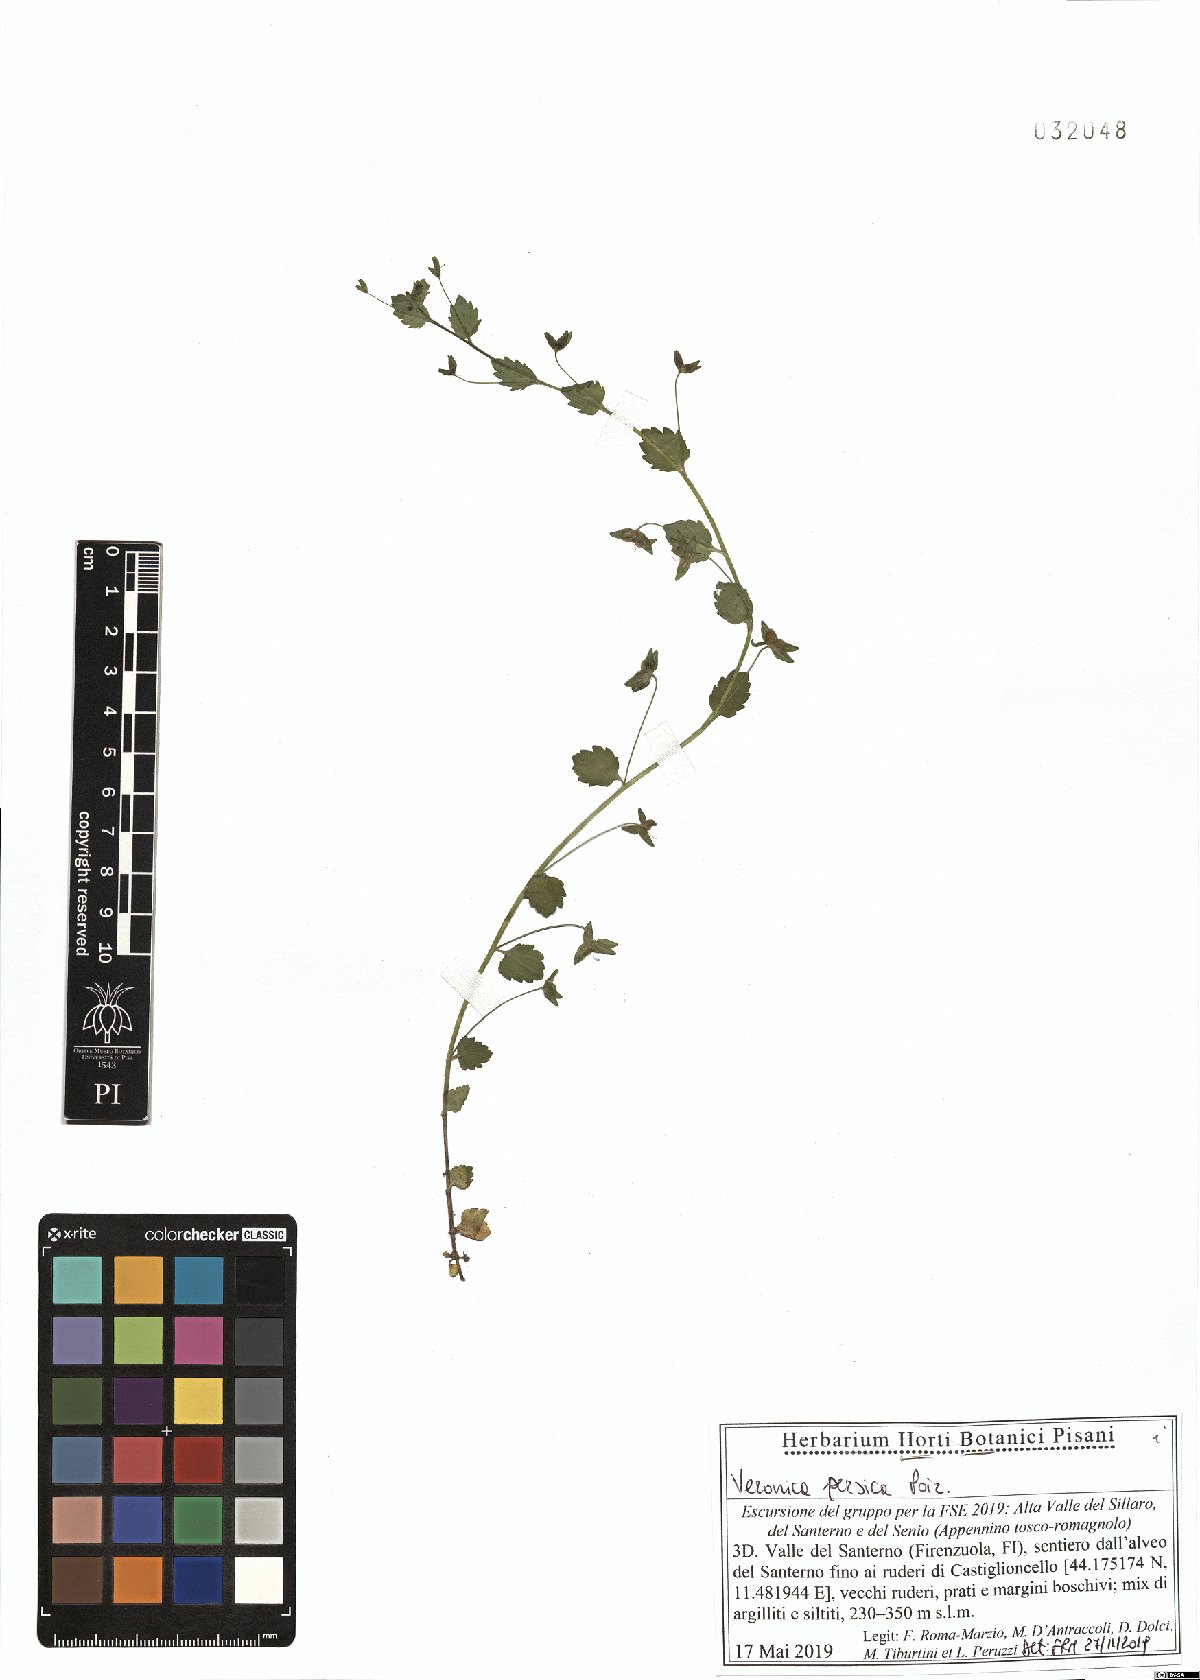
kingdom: Plantae
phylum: Tracheophyta
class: Magnoliopsida
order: Lamiales
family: Plantaginaceae
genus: Veronica
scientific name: Veronica persica
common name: Common field-speedwell
